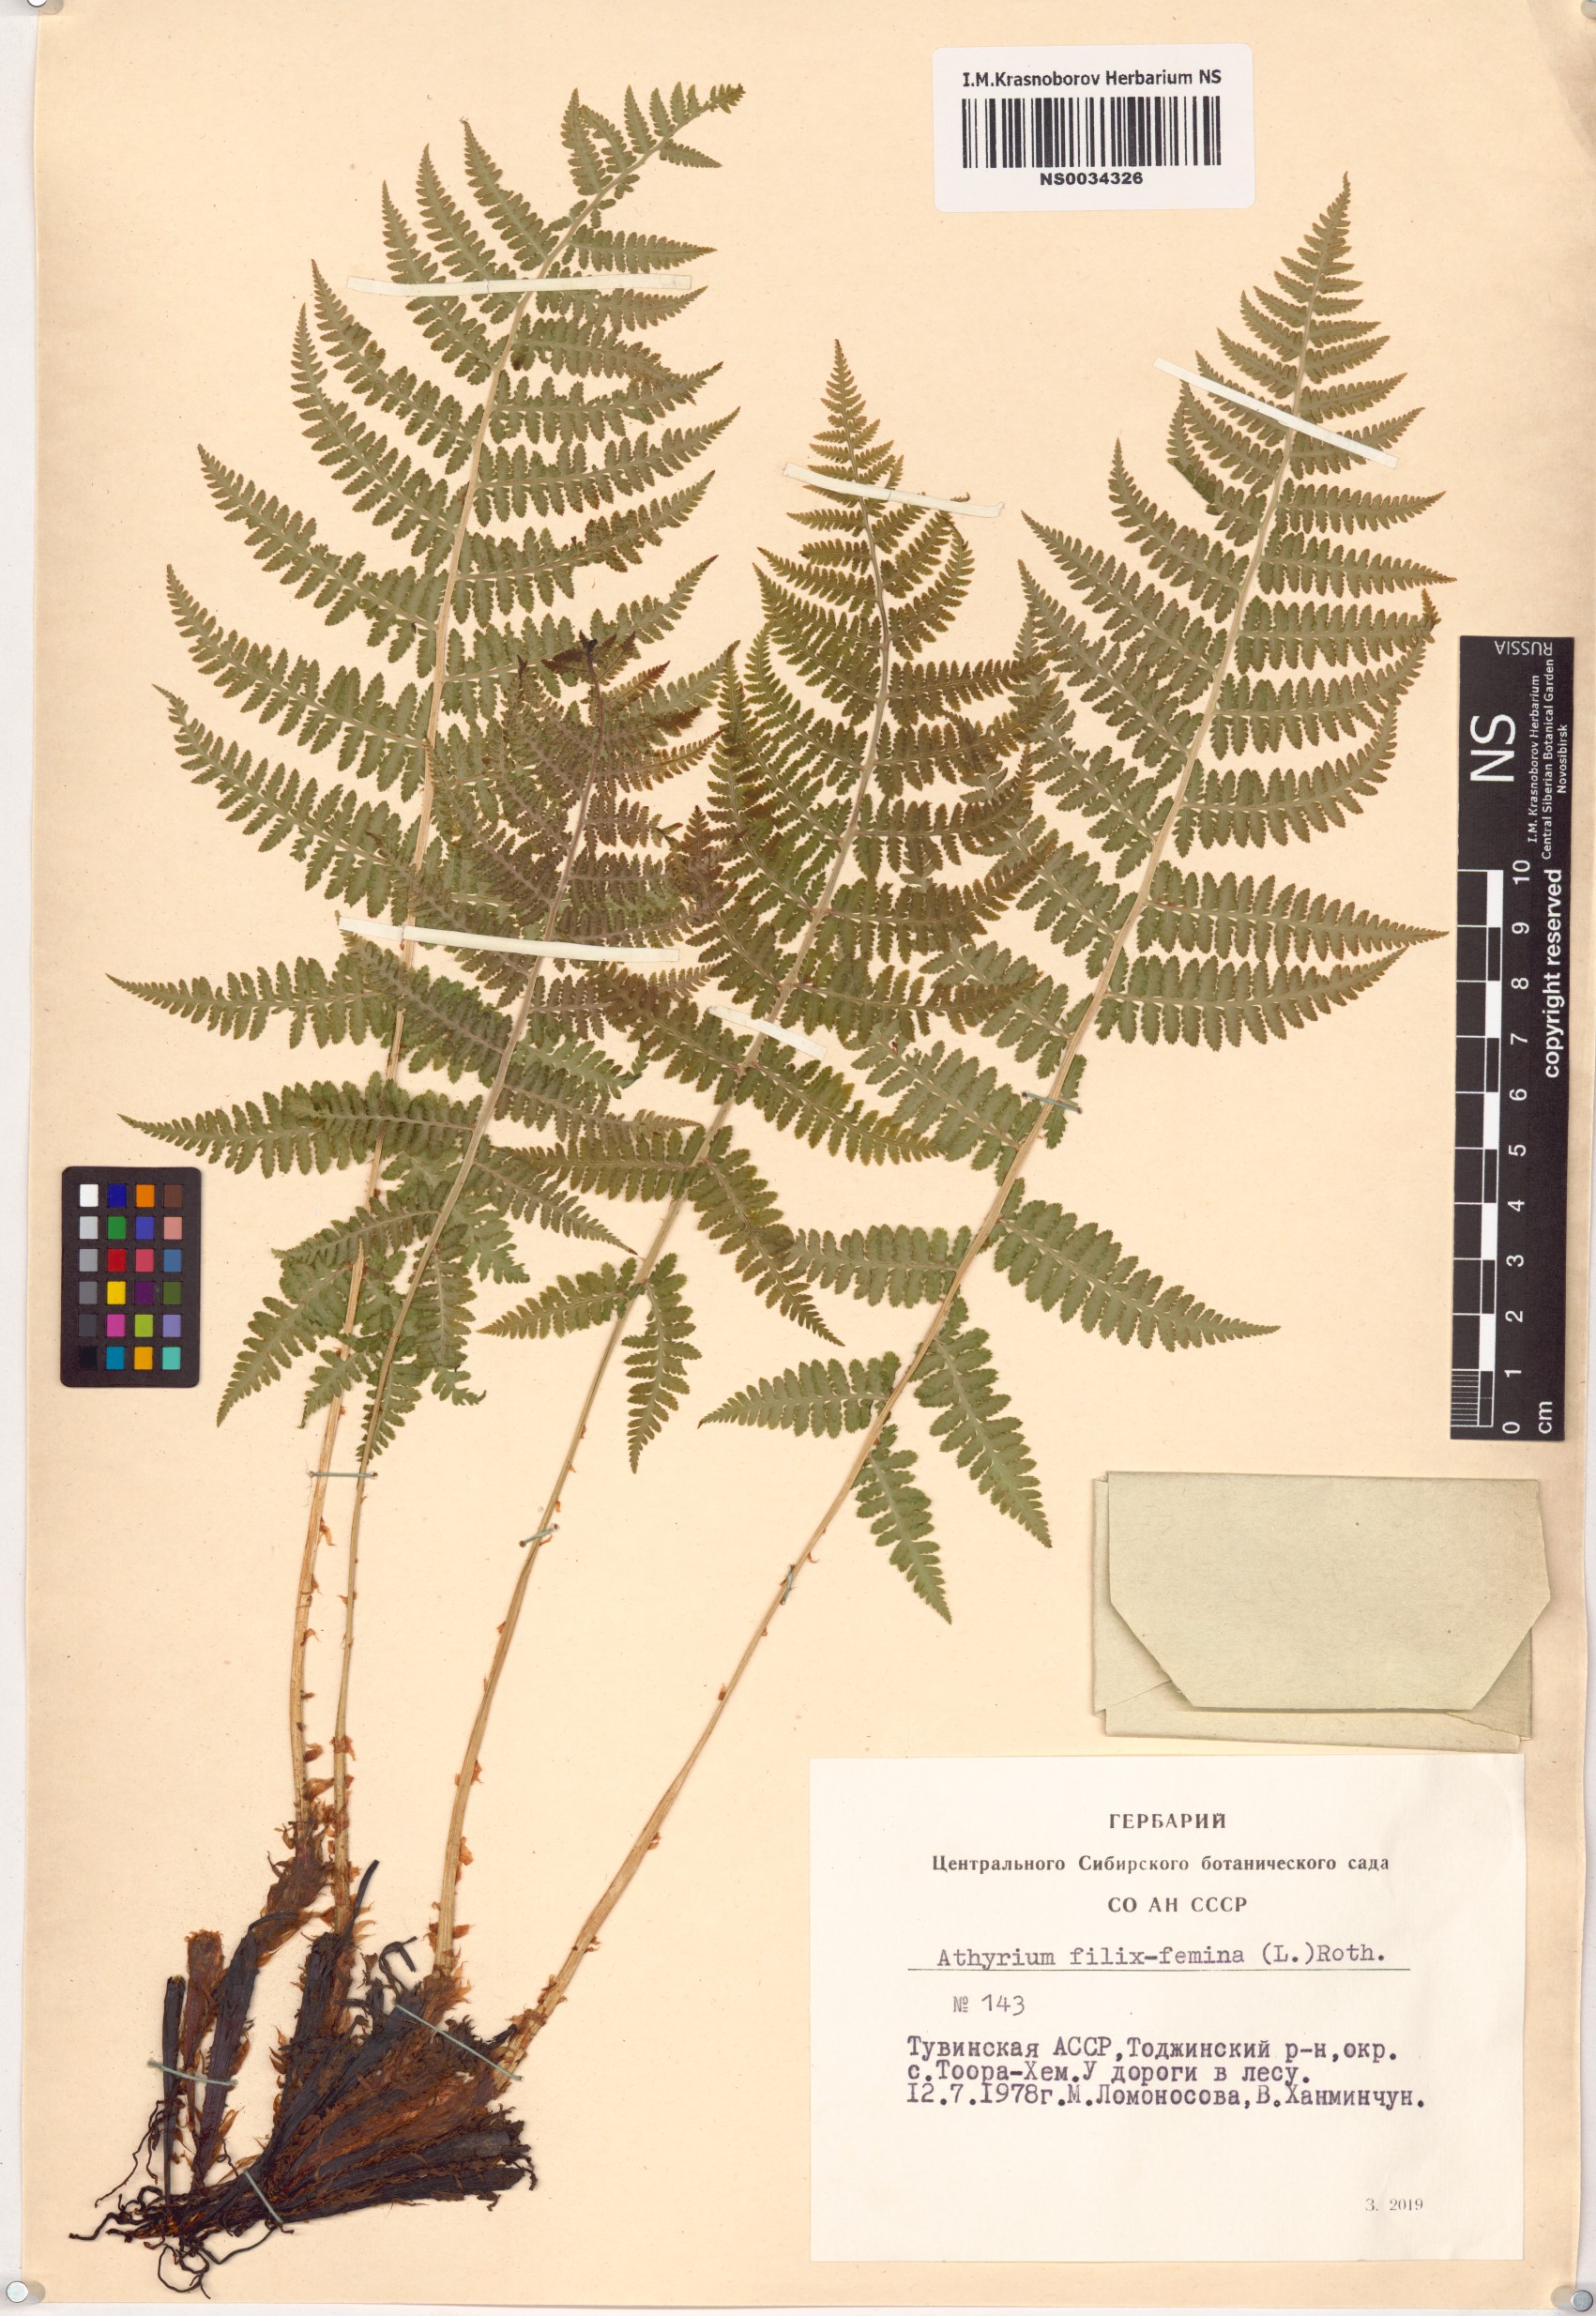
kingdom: Plantae
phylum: Tracheophyta
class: Polypodiopsida
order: Polypodiales
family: Athyriaceae
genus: Athyrium
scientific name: Athyrium filix-femina
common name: Lady fern
